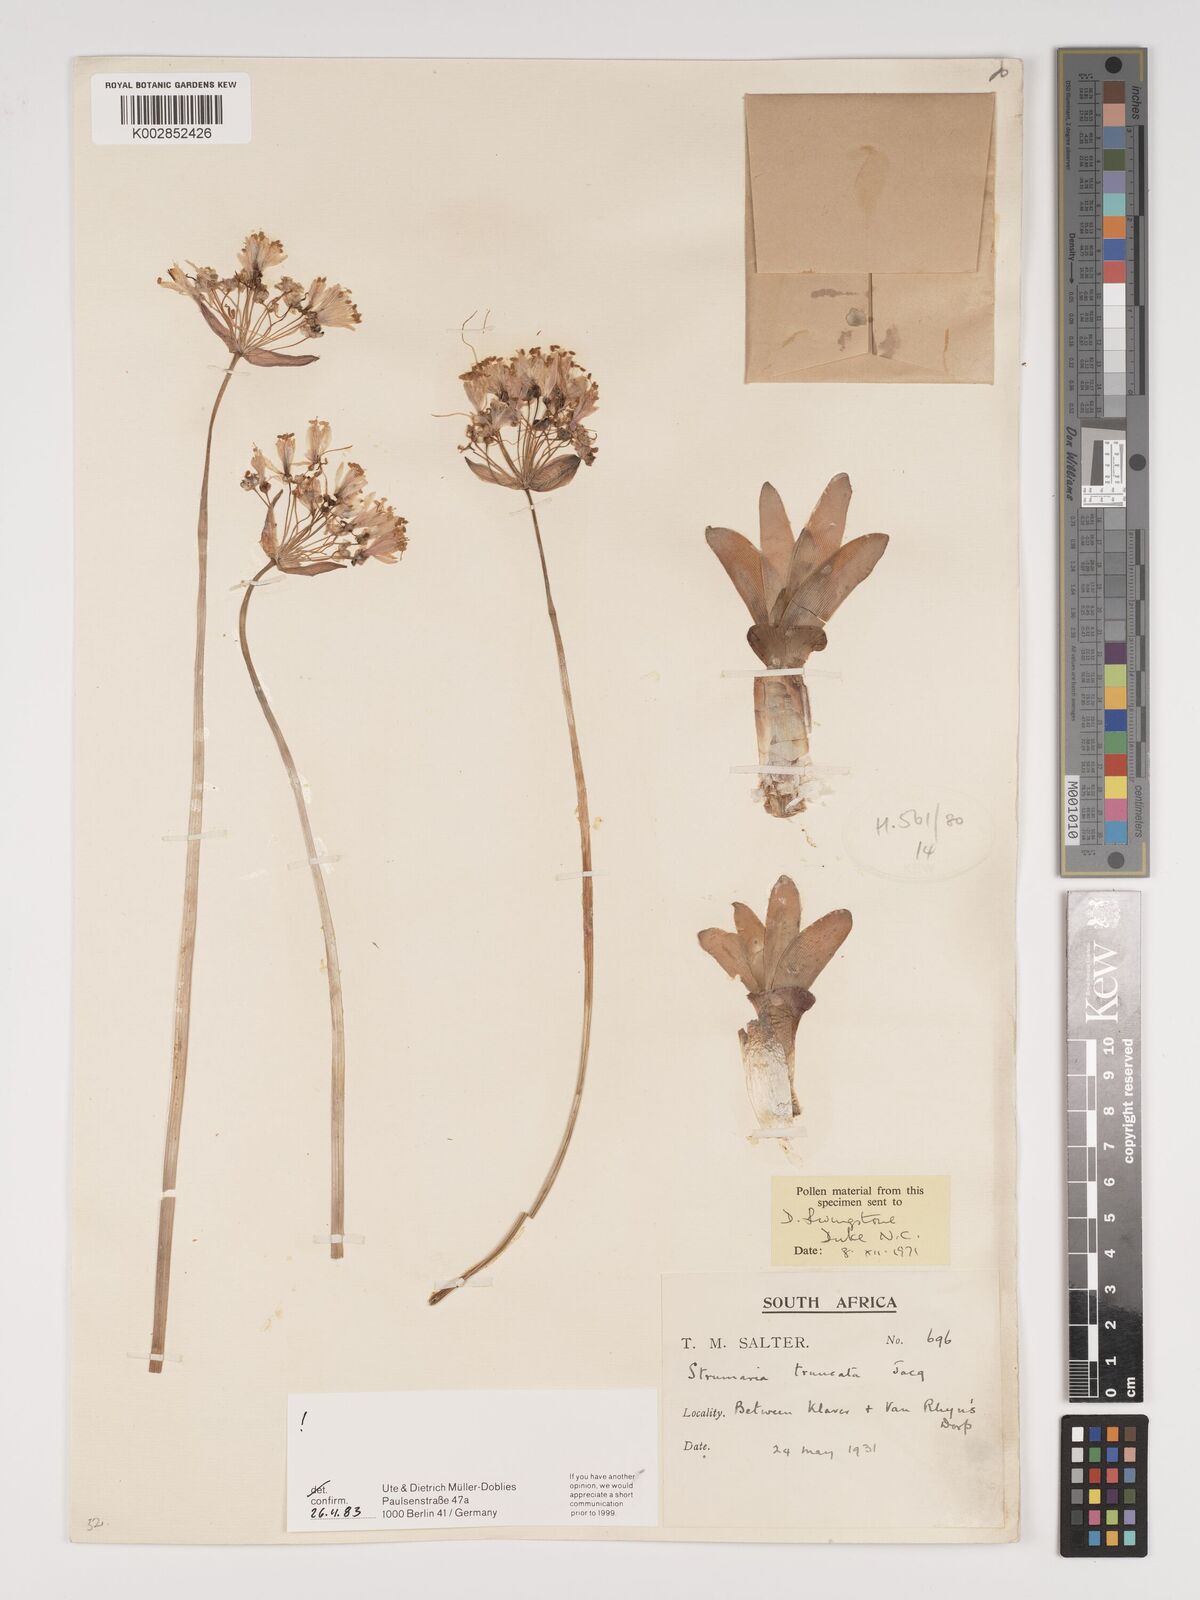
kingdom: Plantae
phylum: Tracheophyta
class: Liliopsida
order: Asparagales
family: Amaryllidaceae
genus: Strumaria
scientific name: Strumaria truncata
